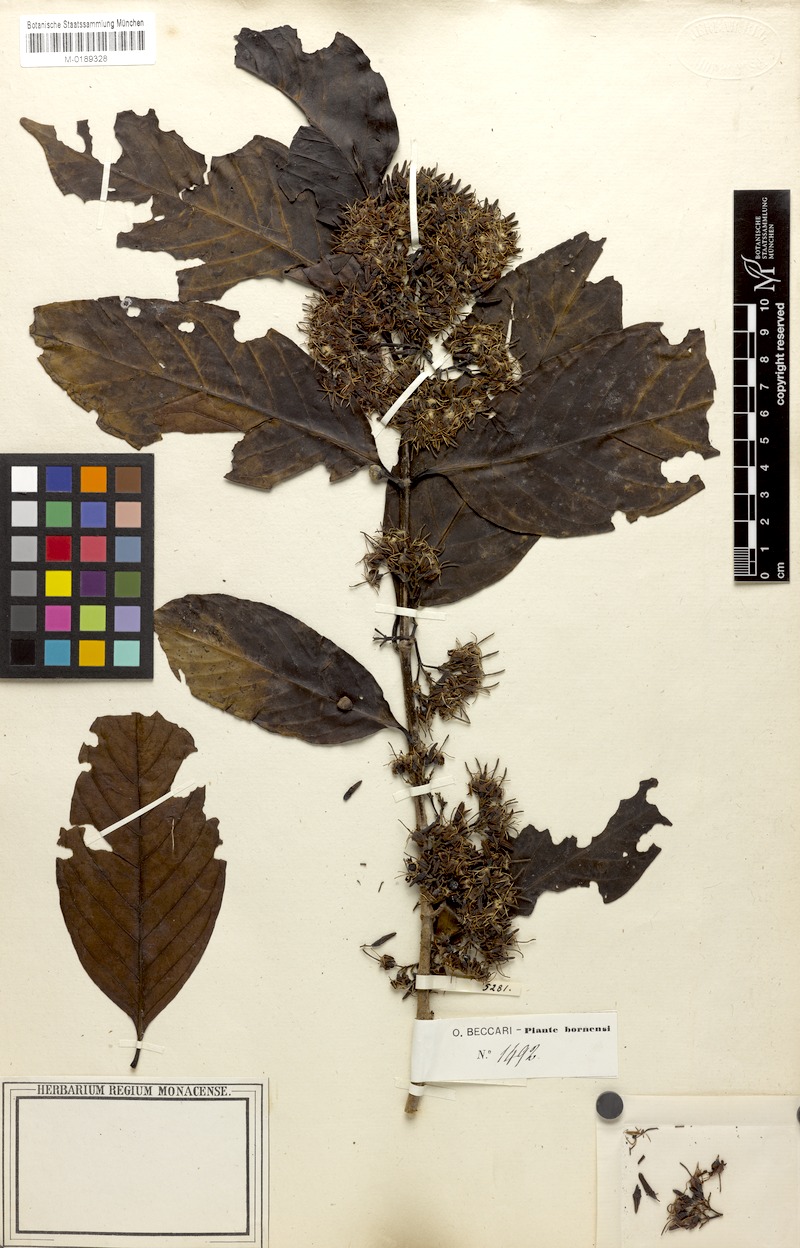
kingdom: Plantae
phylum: Tracheophyta
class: Magnoliopsida
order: Gentianales
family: Rubiaceae
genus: Aidia
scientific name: Aidia densiflora
